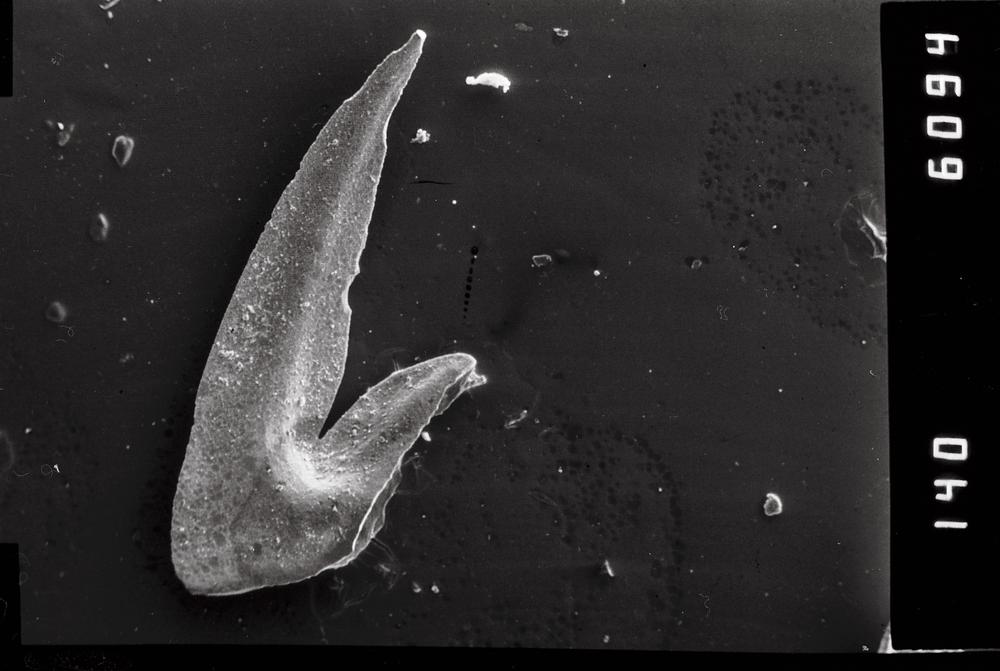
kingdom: Animalia
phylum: Chordata
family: Oistodontidae
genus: Oistodus
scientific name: Oistodus lanceolatus
